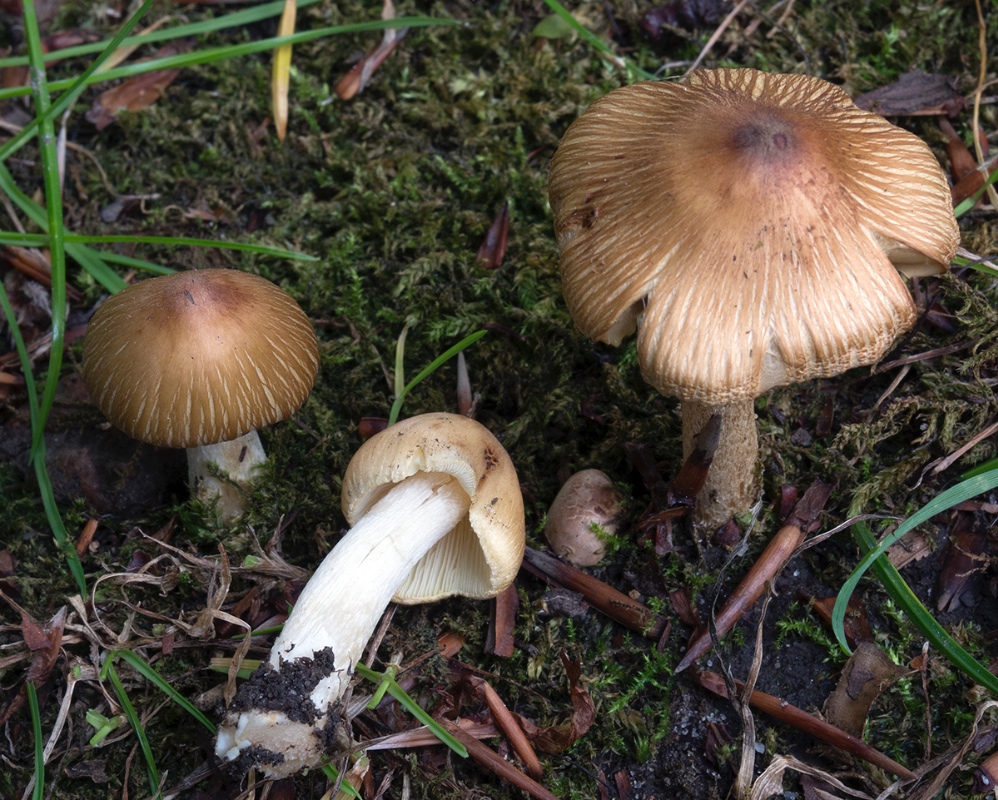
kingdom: Fungi
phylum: Basidiomycota
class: Agaricomycetes
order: Agaricales
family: Inocybaceae
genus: Pseudosperma
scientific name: Pseudosperma
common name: trævlhat
